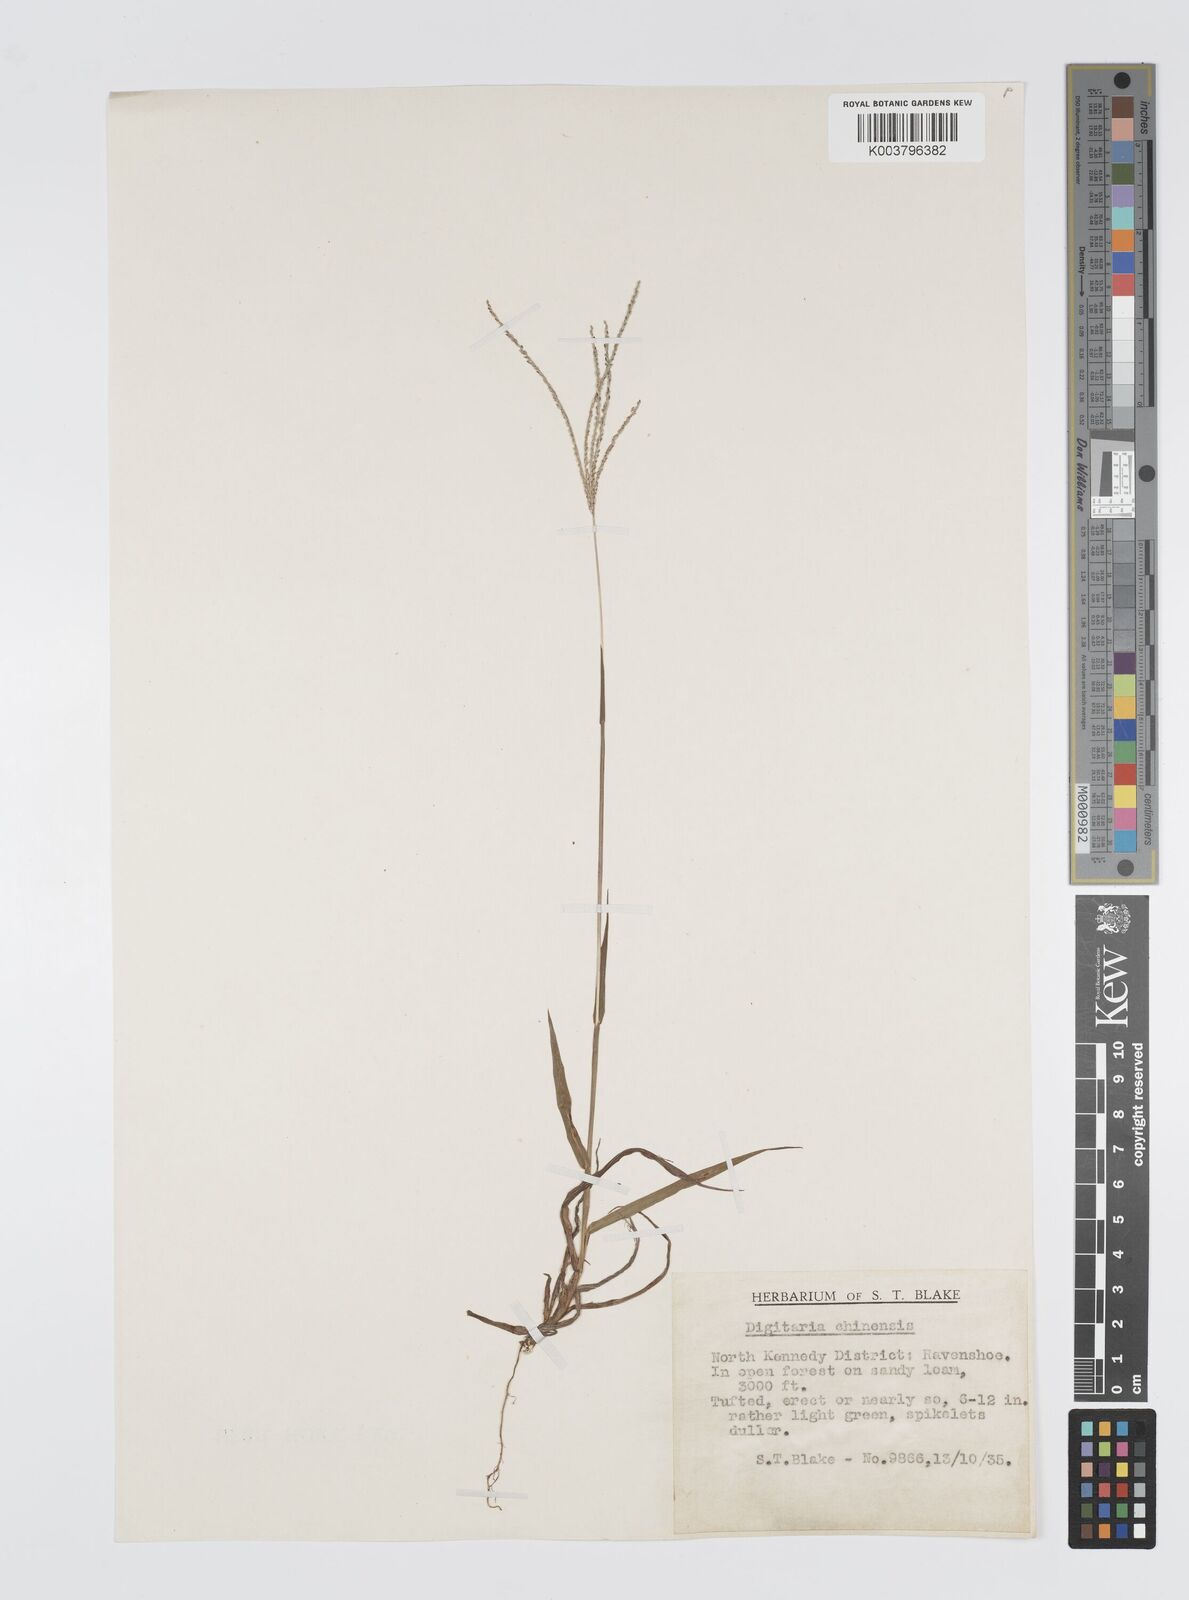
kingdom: Plantae
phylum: Tracheophyta
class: Liliopsida
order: Poales
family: Poaceae
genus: Digitaria
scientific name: Digitaria violascens
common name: Violet crabgrass
